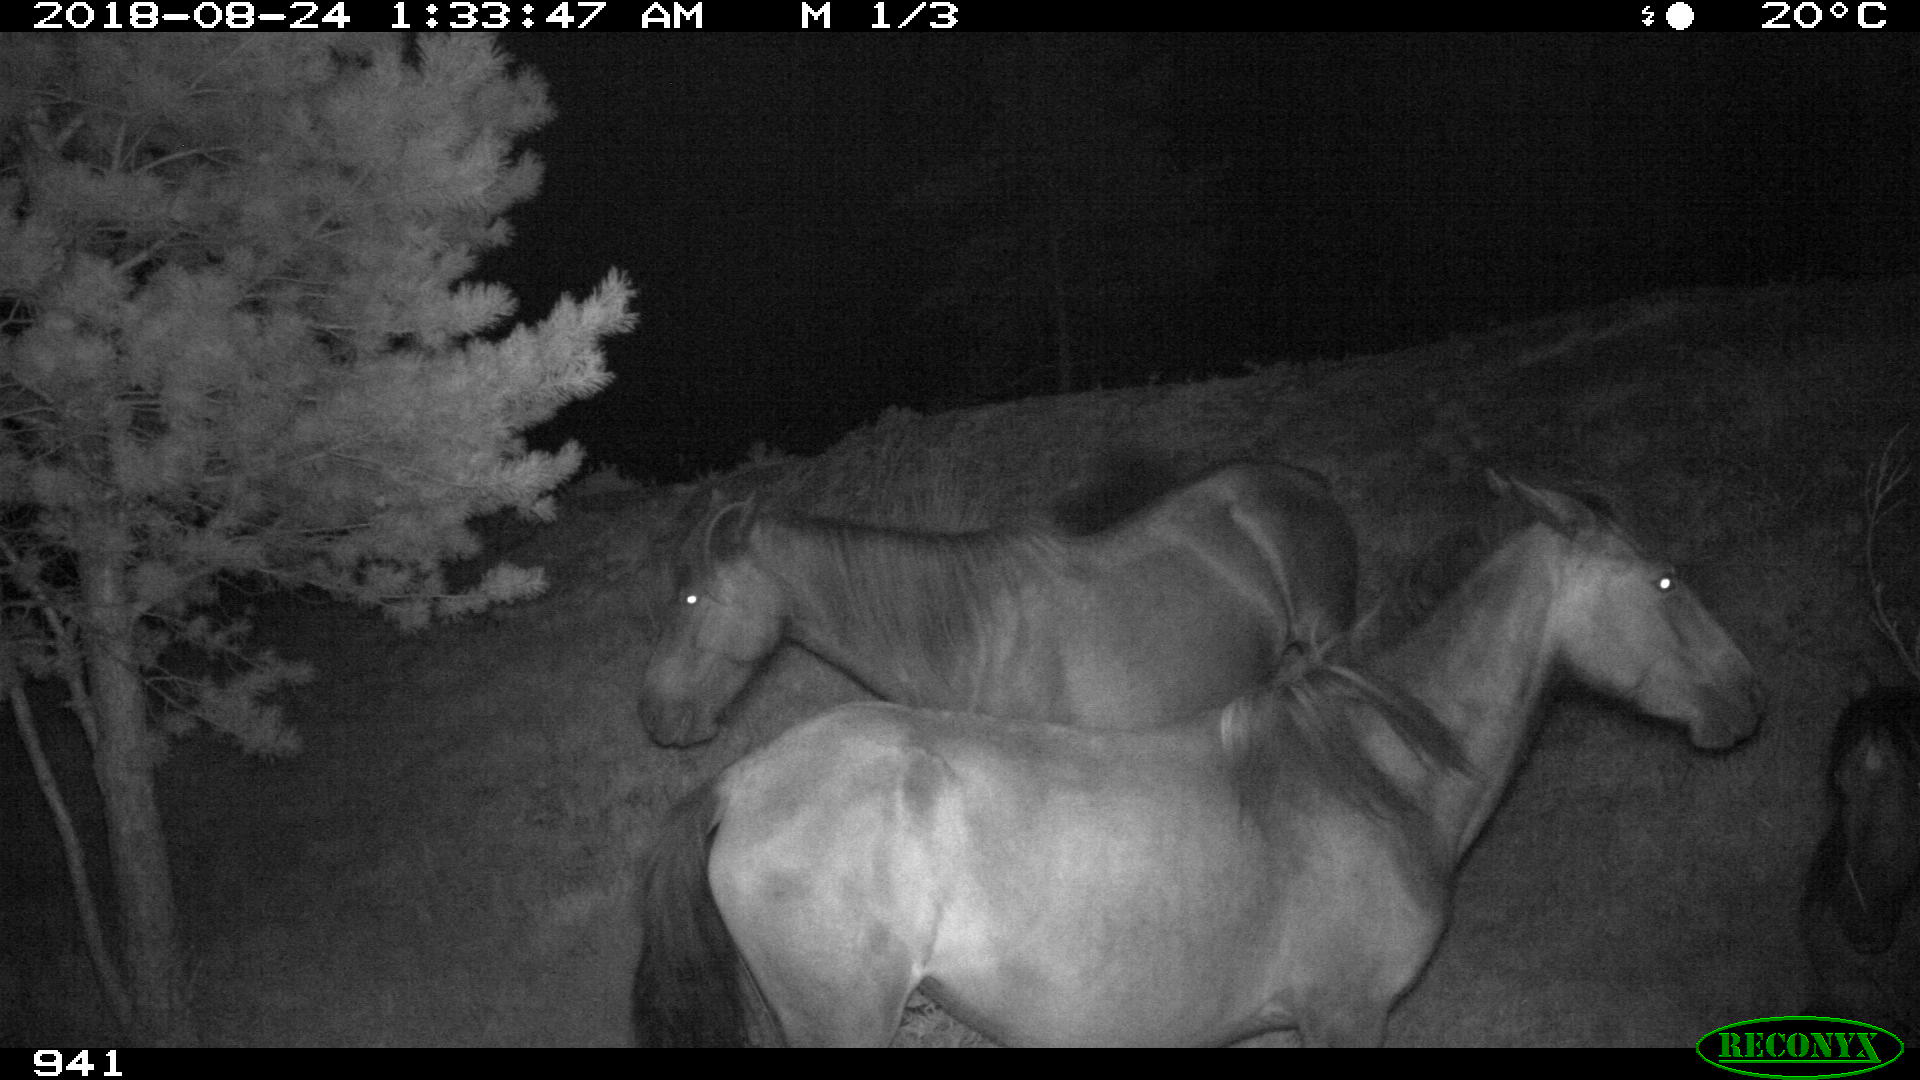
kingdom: Animalia
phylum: Chordata
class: Mammalia
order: Perissodactyla
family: Equidae
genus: Equus
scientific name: Equus caballus
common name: Horse
